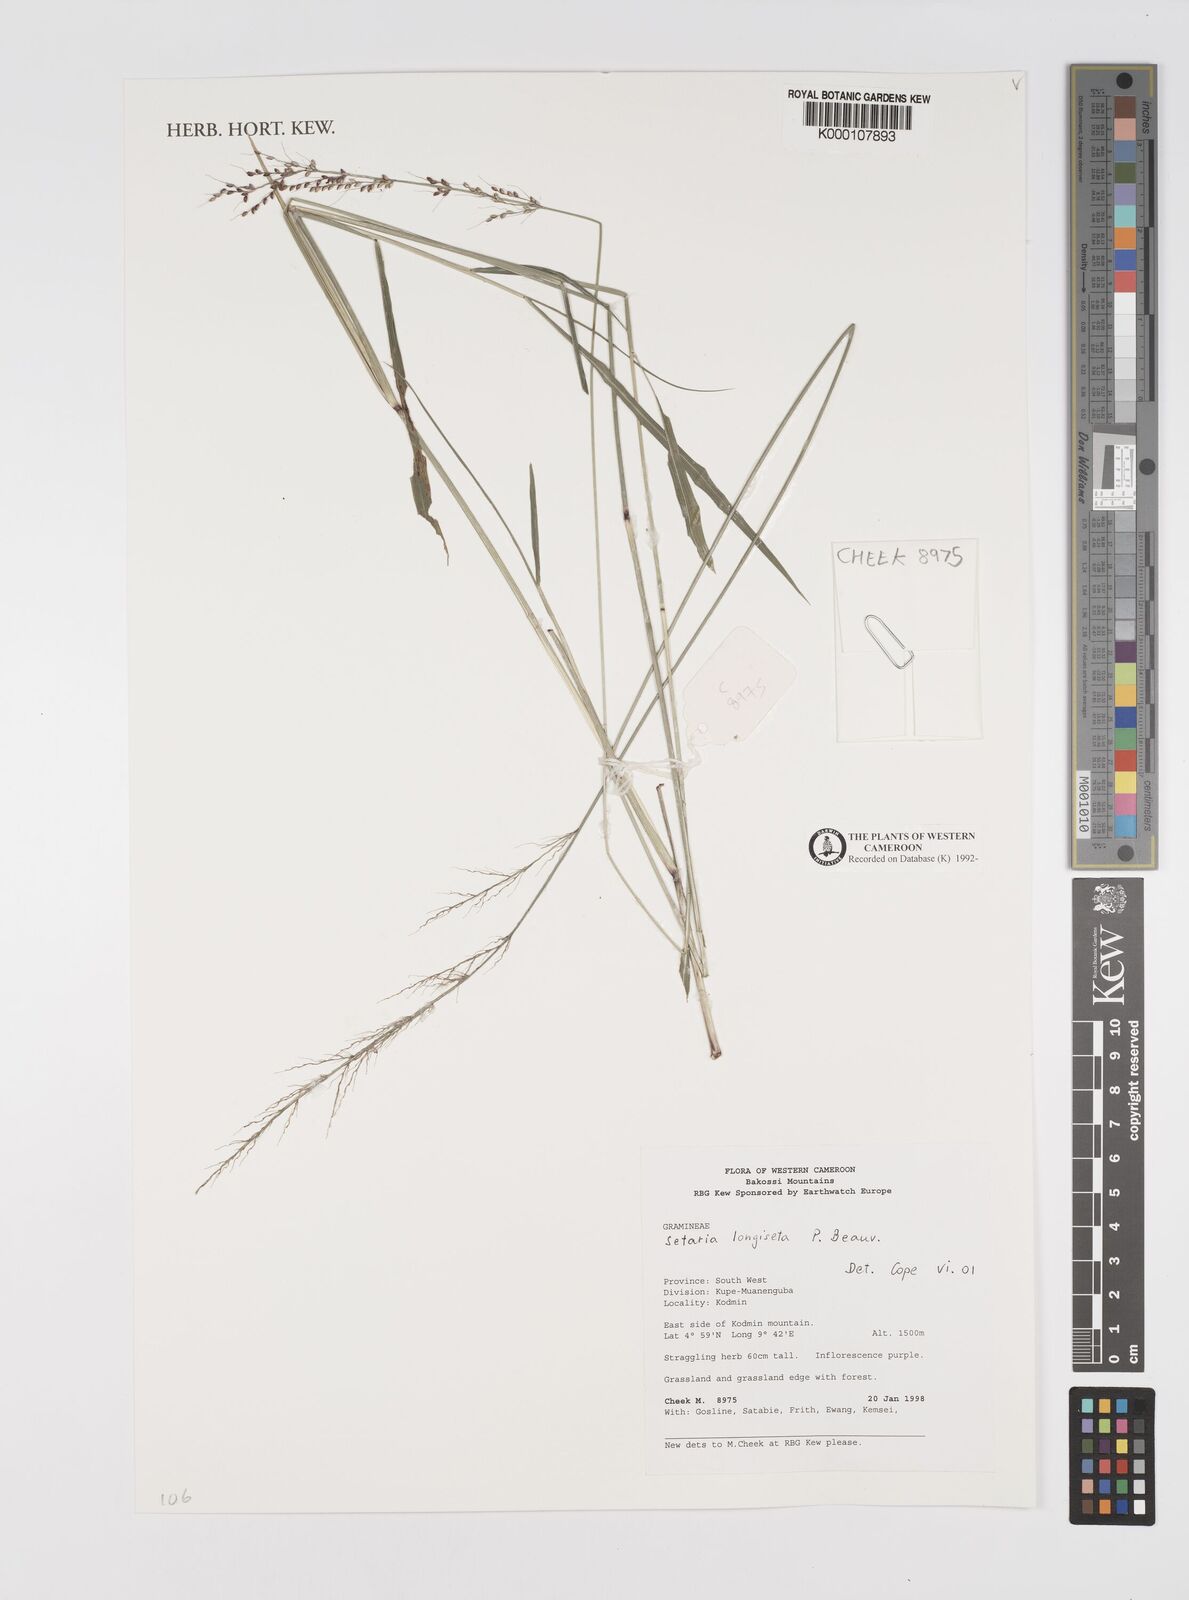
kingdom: Plantae
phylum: Tracheophyta
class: Liliopsida
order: Poales
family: Poaceae
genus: Setaria
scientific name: Setaria longiseta
